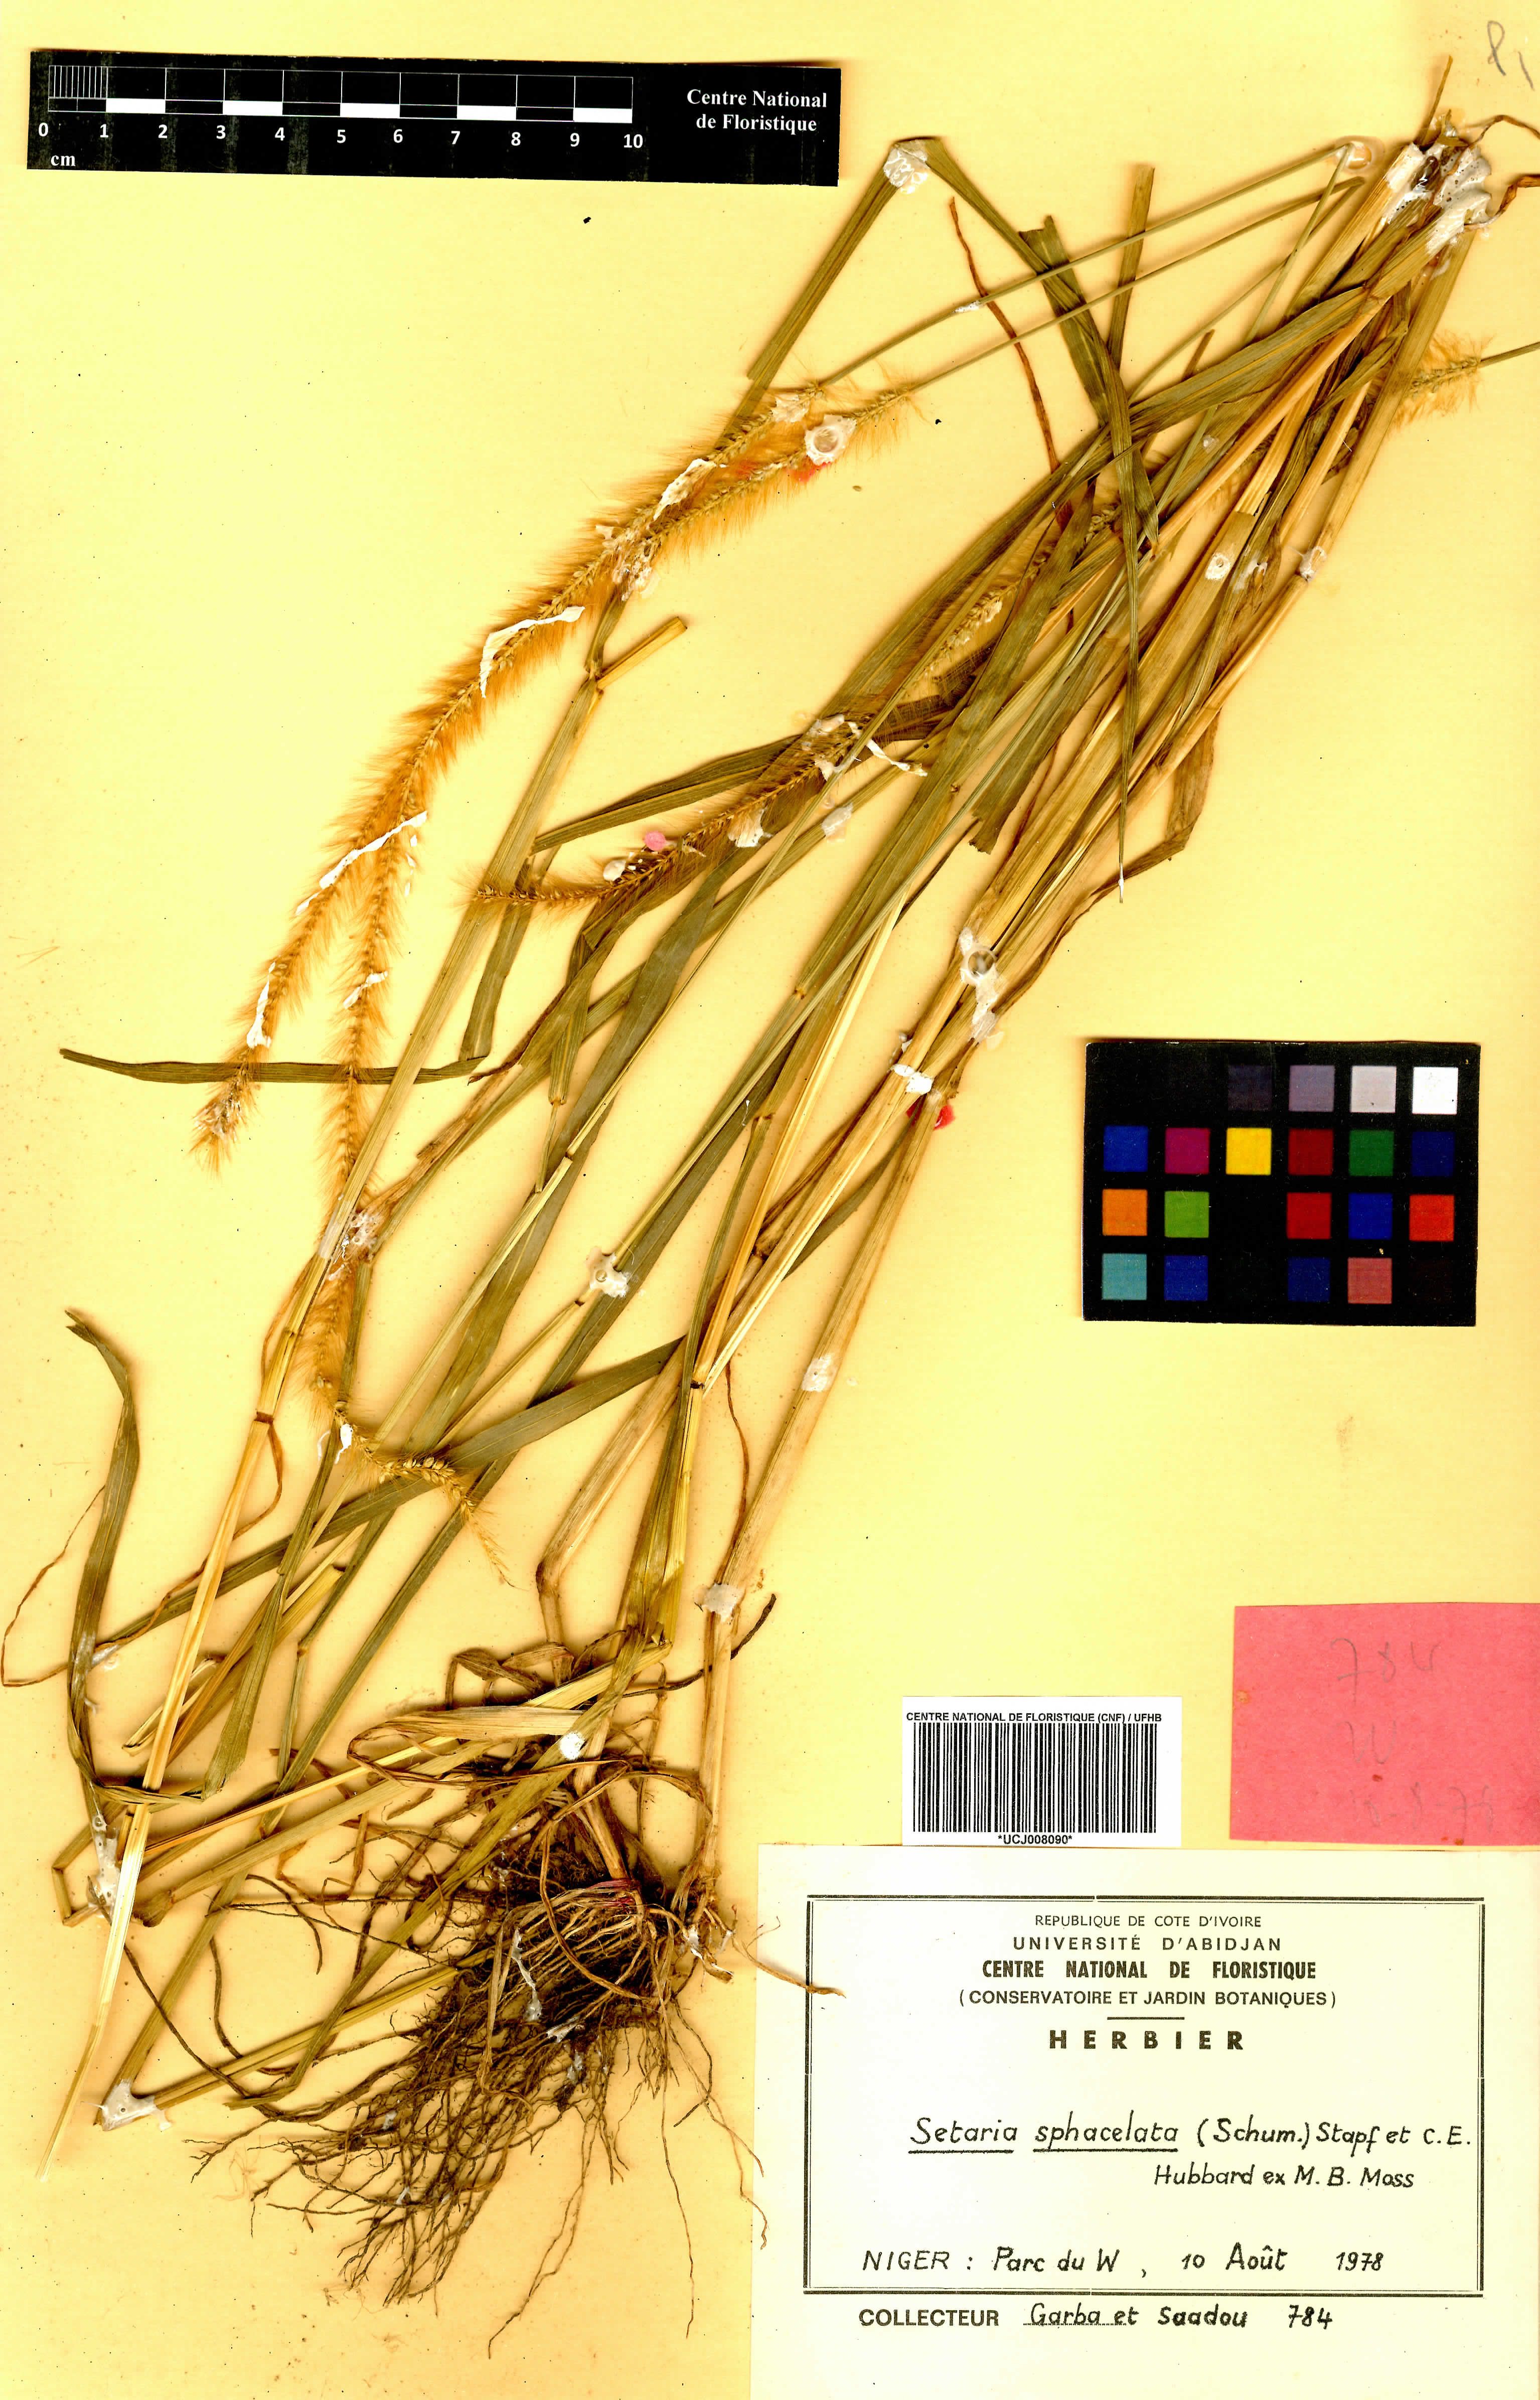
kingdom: Plantae
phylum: Tracheophyta
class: Liliopsida
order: Poales
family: Poaceae
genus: Setaria
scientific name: Setaria sphacelata
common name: African bristlegrass
